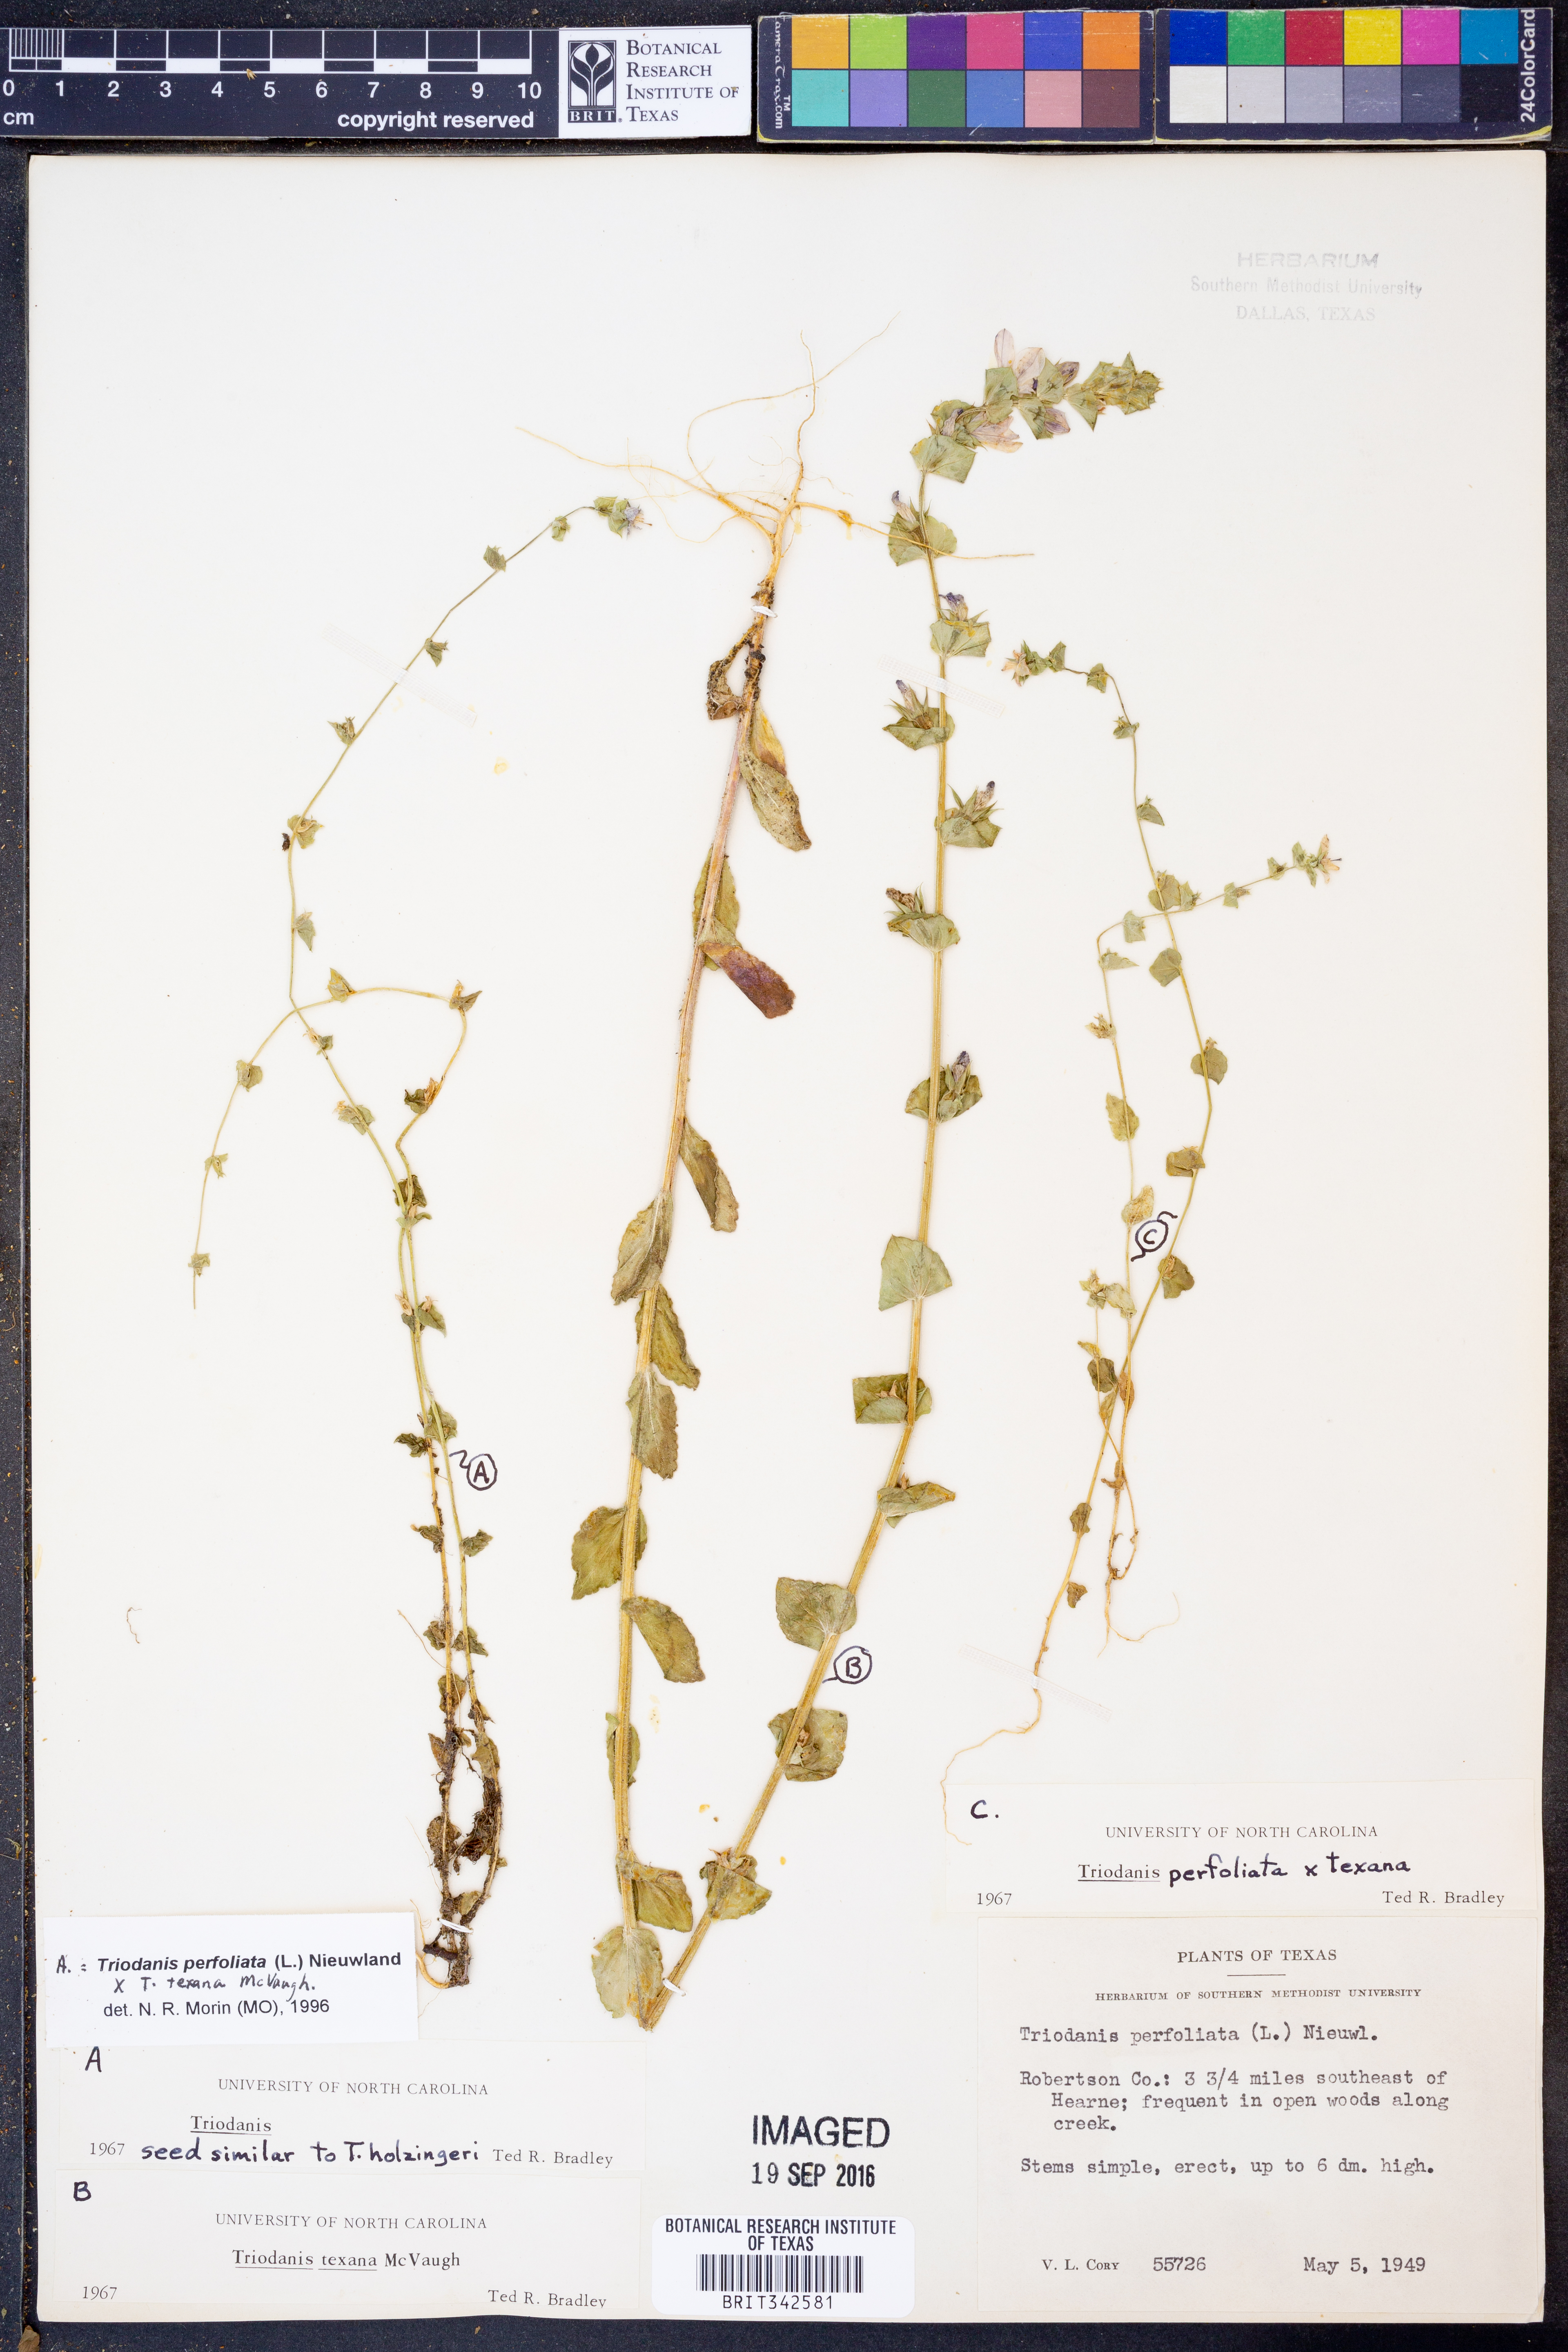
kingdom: Plantae
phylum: Tracheophyta
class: Magnoliopsida
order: Asterales
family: Campanulaceae
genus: Triodanis
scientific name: Triodanis perfoliata
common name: Clasping venus' looking-glass
